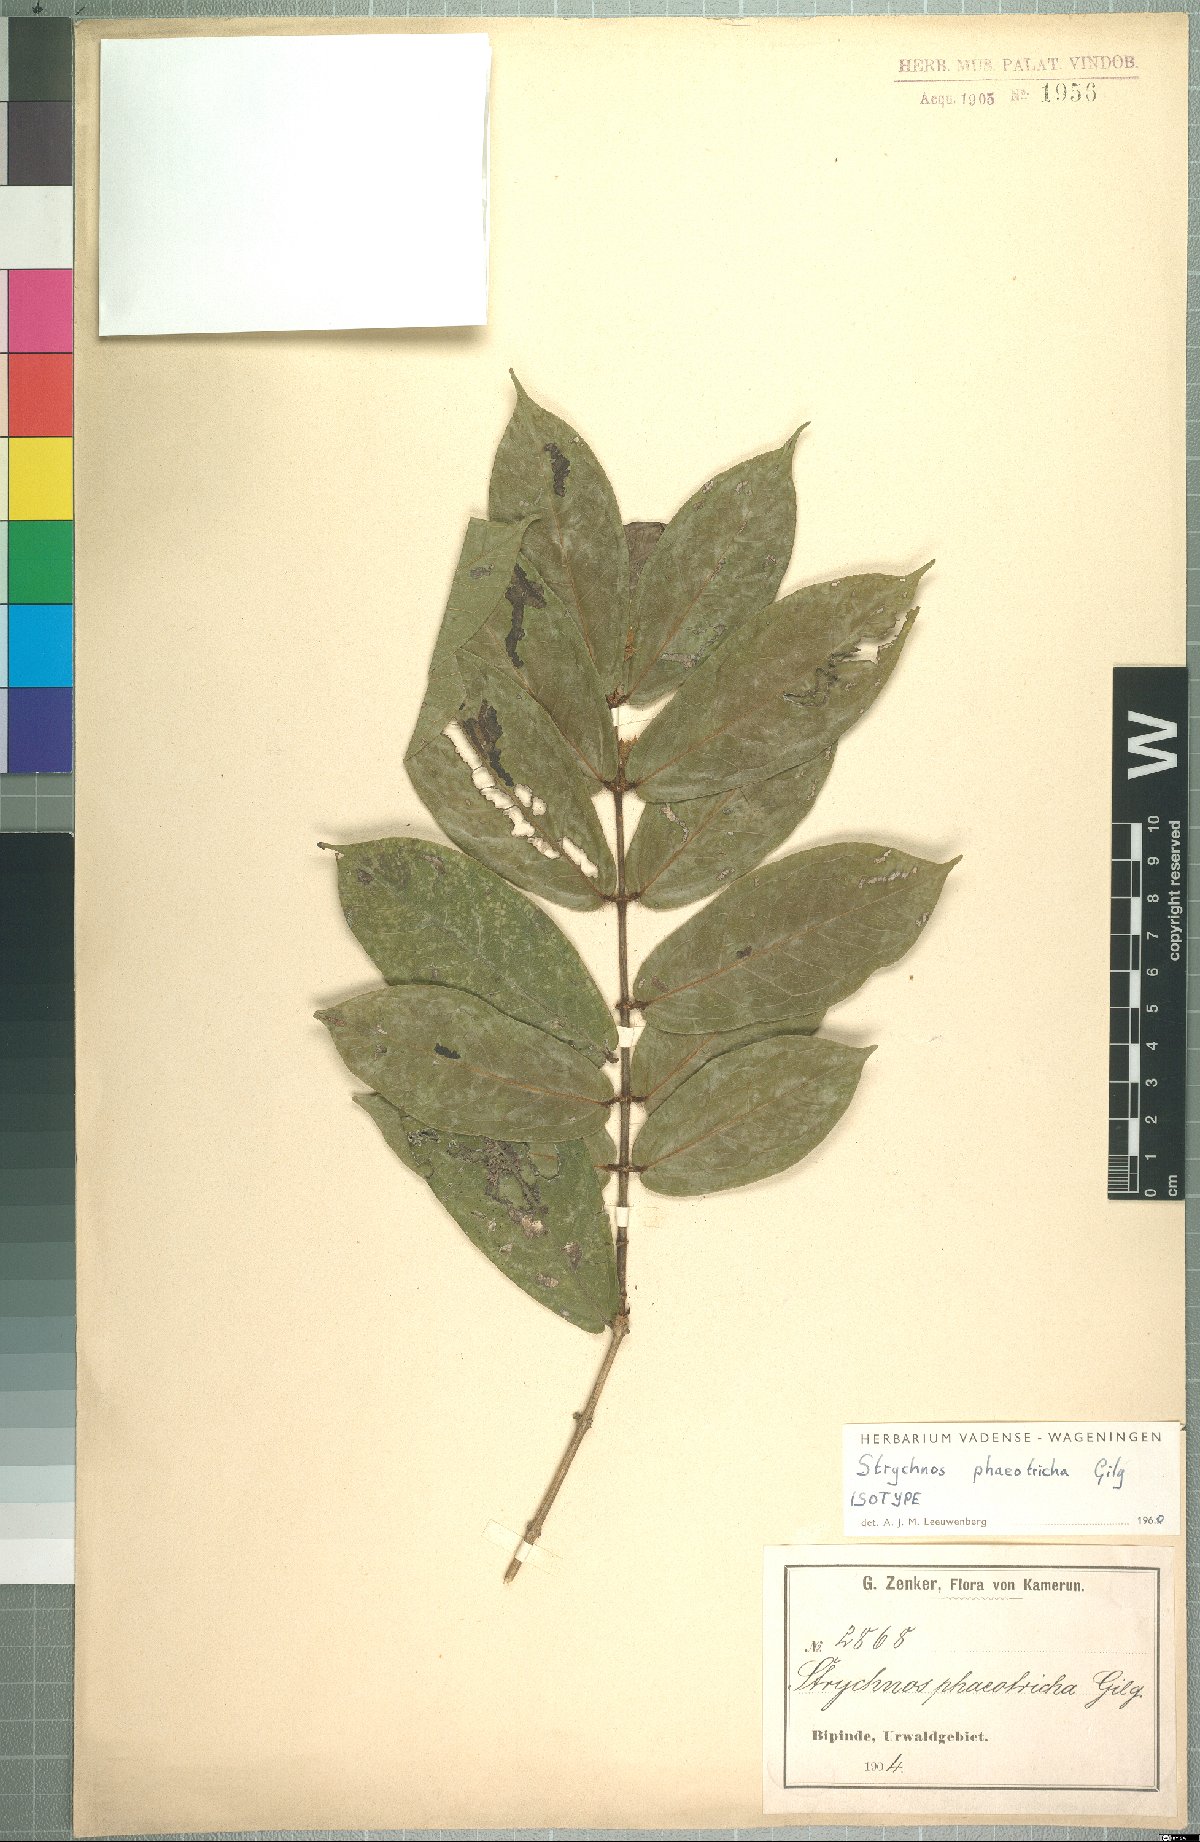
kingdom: Plantae
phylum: Tracheophyta
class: Magnoliopsida
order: Gentianales
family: Loganiaceae
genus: Strychnos
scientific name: Strychnos phaeotricha
